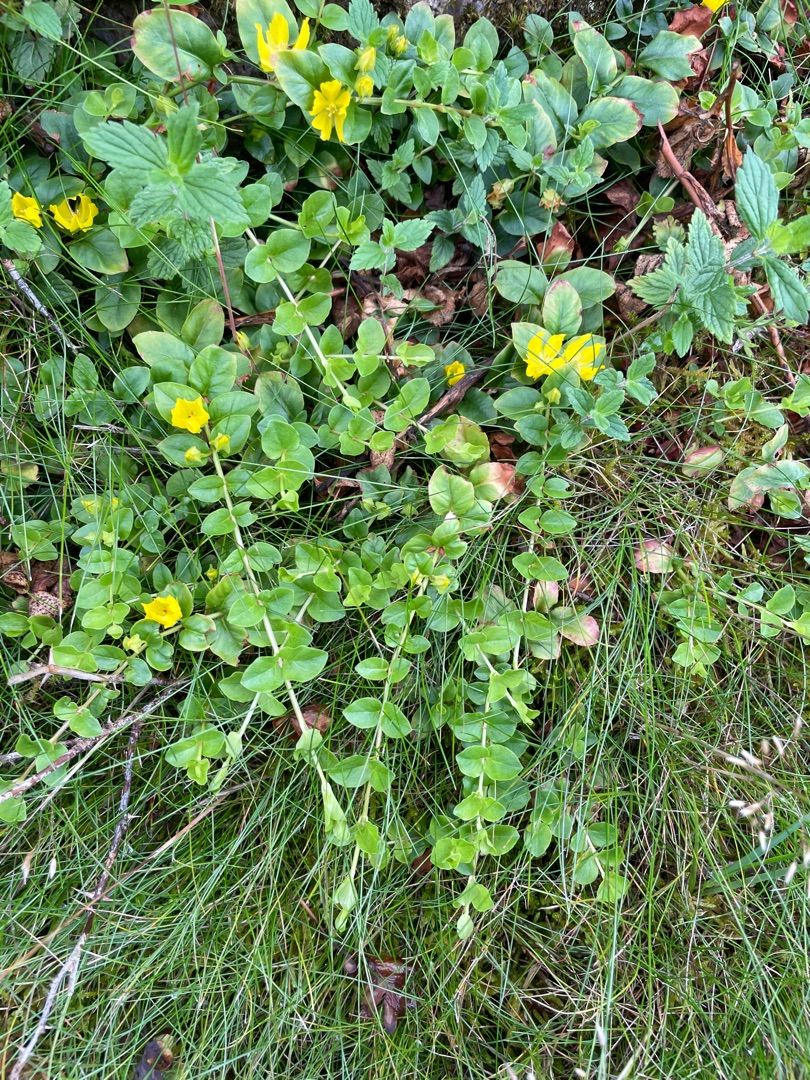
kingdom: Plantae
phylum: Tracheophyta
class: Magnoliopsida
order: Ericales
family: Primulaceae
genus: Lysimachia
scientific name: Lysimachia nummularia
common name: Pengebladet fredløs
